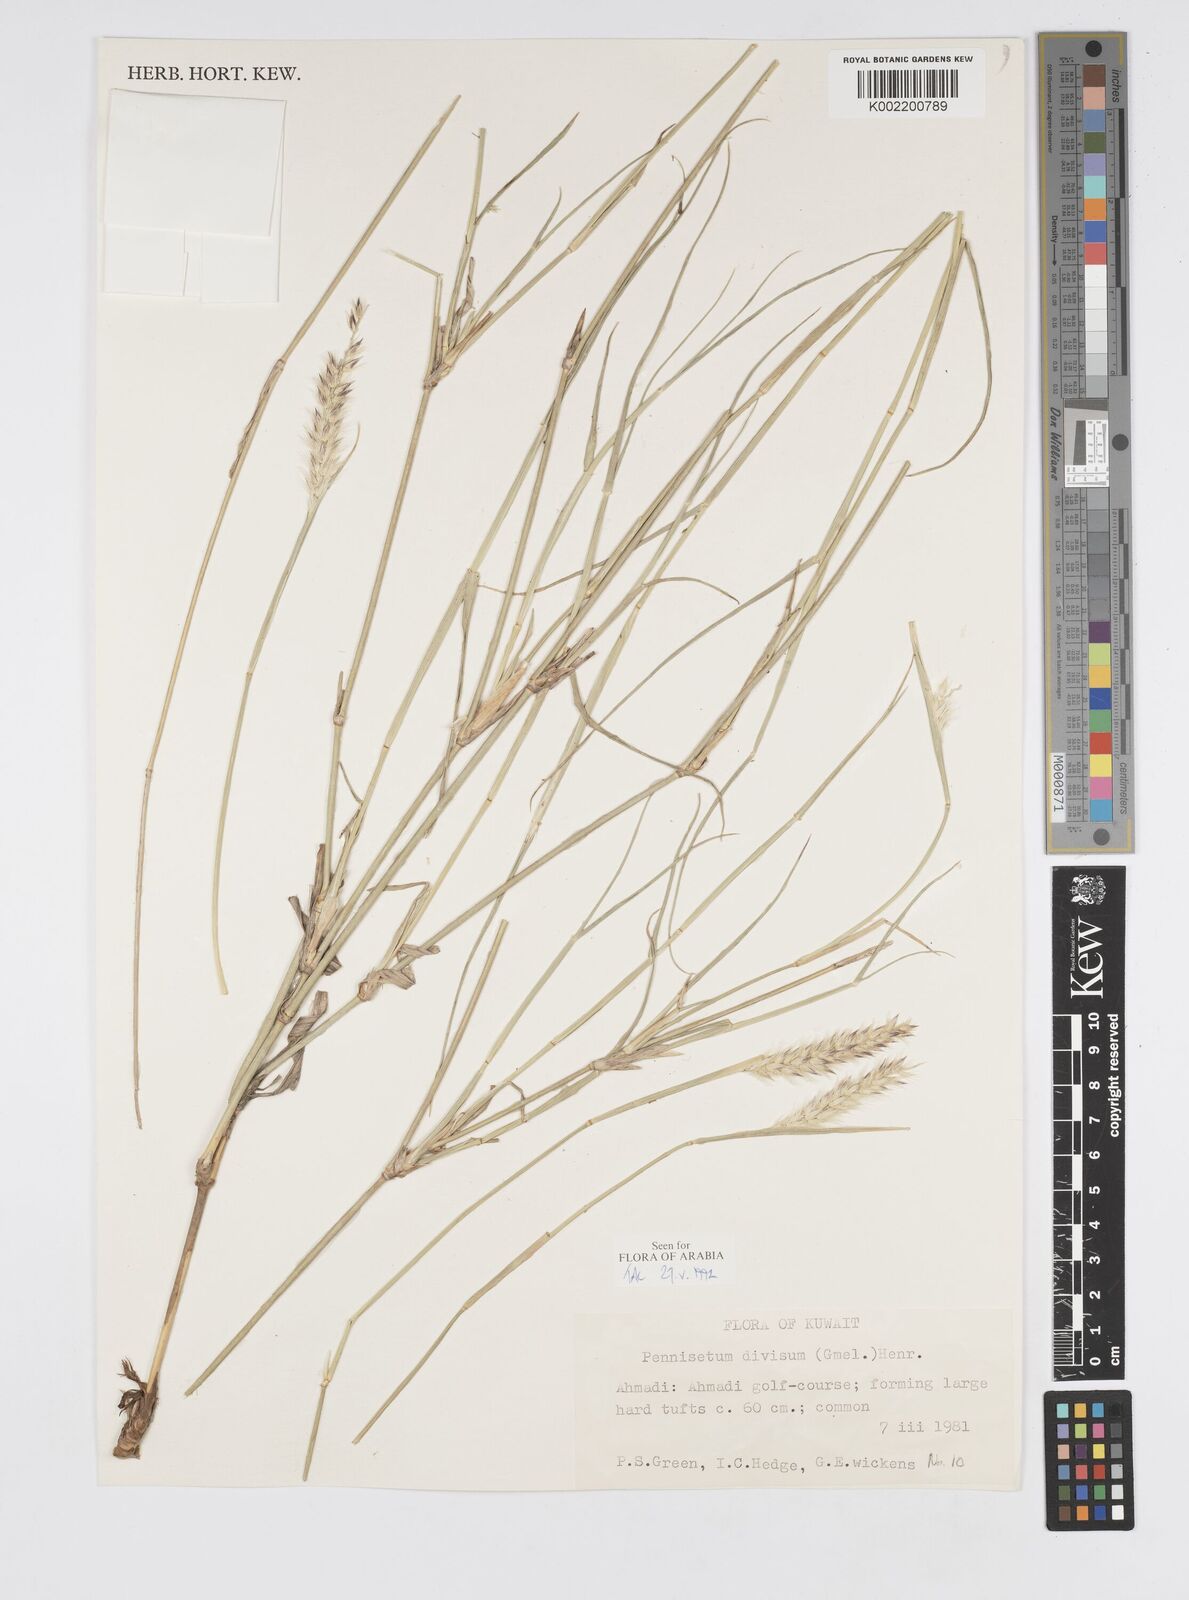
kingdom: Plantae
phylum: Tracheophyta
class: Liliopsida
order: Poales
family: Poaceae
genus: Cenchrus
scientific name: Cenchrus divisus
